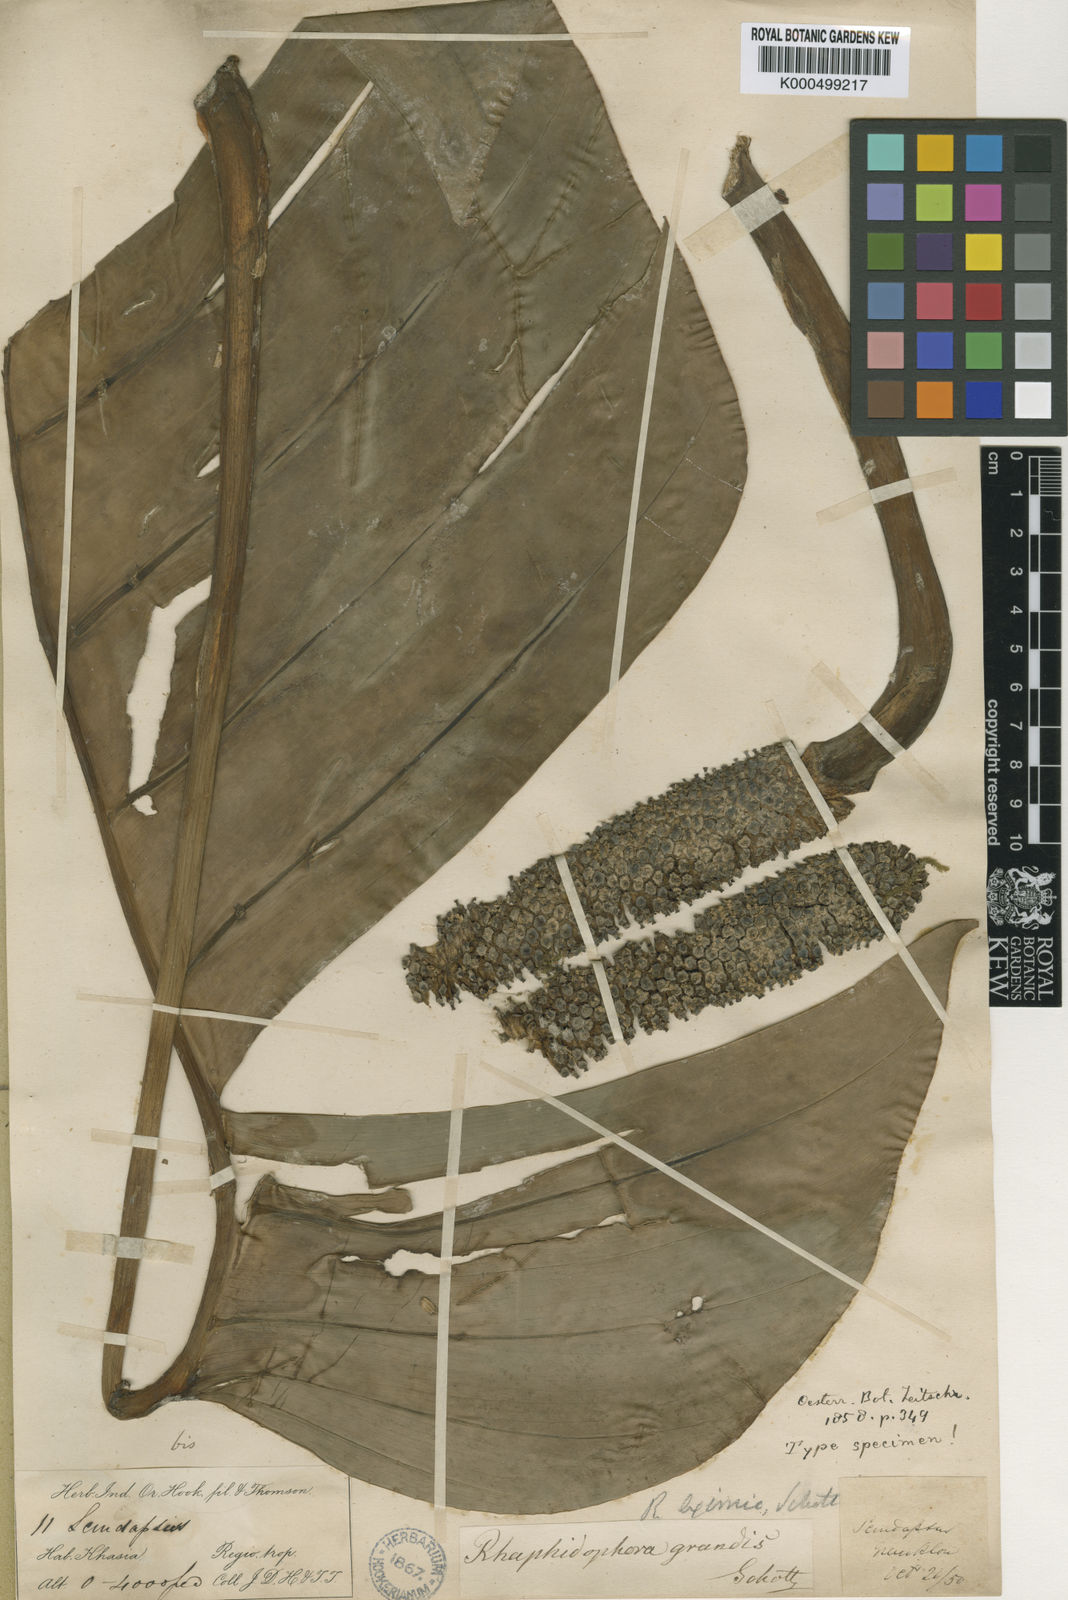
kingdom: Plantae
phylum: Tracheophyta
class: Liliopsida
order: Alismatales
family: Araceae
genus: Rhaphidophora
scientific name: Rhaphidophora decursiva
